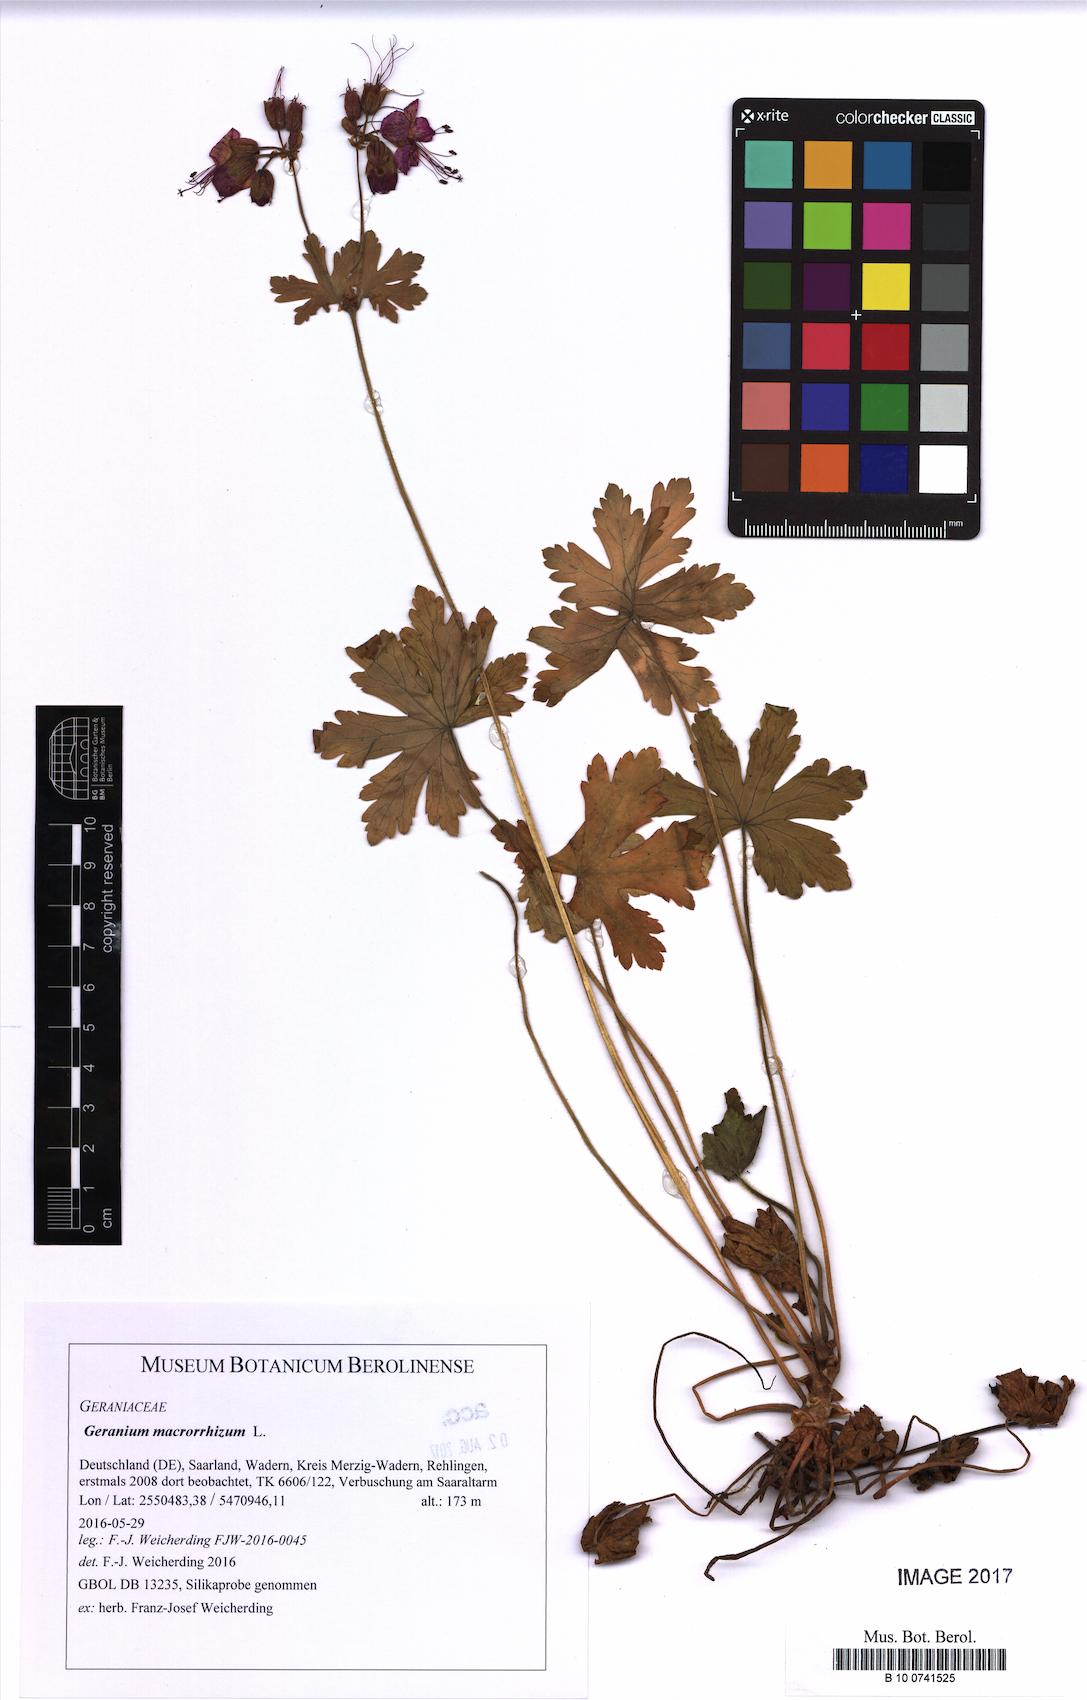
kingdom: Plantae
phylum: Tracheophyta
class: Magnoliopsida
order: Geraniales
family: Geraniaceae
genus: Geranium
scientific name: Geranium macrorrhizum
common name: Rock crane's-bill
